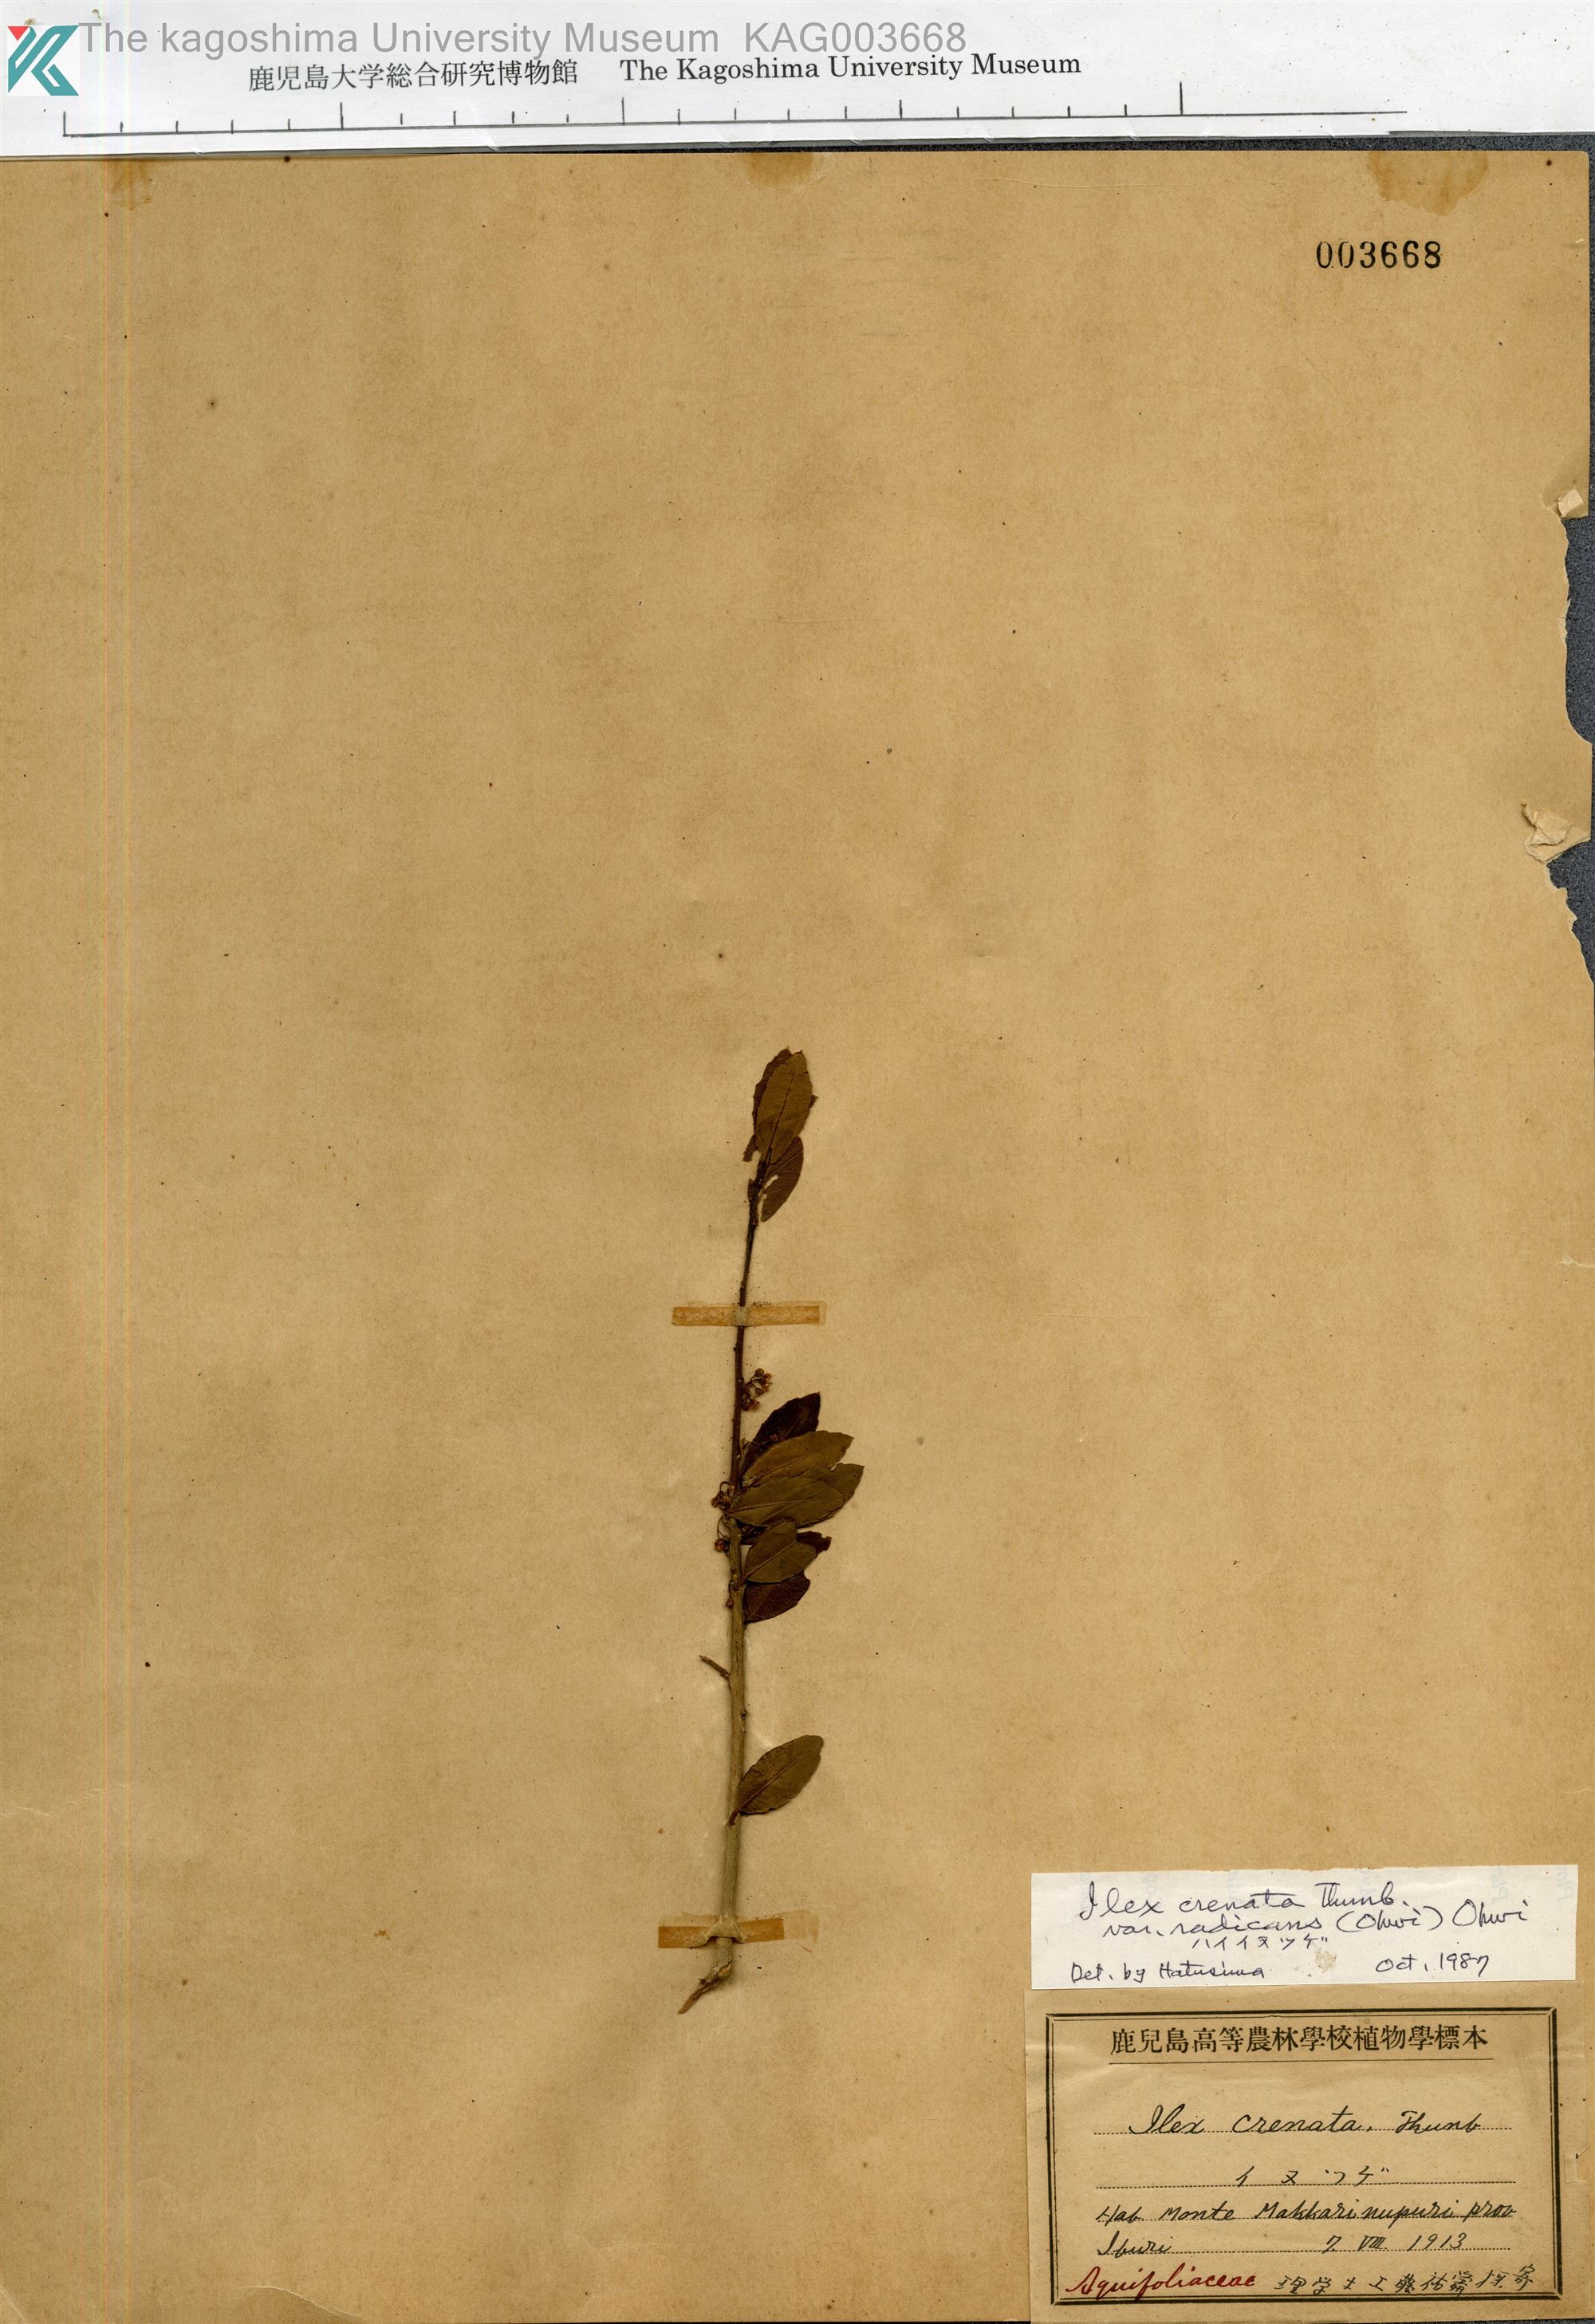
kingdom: Plantae
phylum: Tracheophyta
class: Magnoliopsida
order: Aquifoliales
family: Aquifoliaceae
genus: Ilex
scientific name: Ilex crenata
